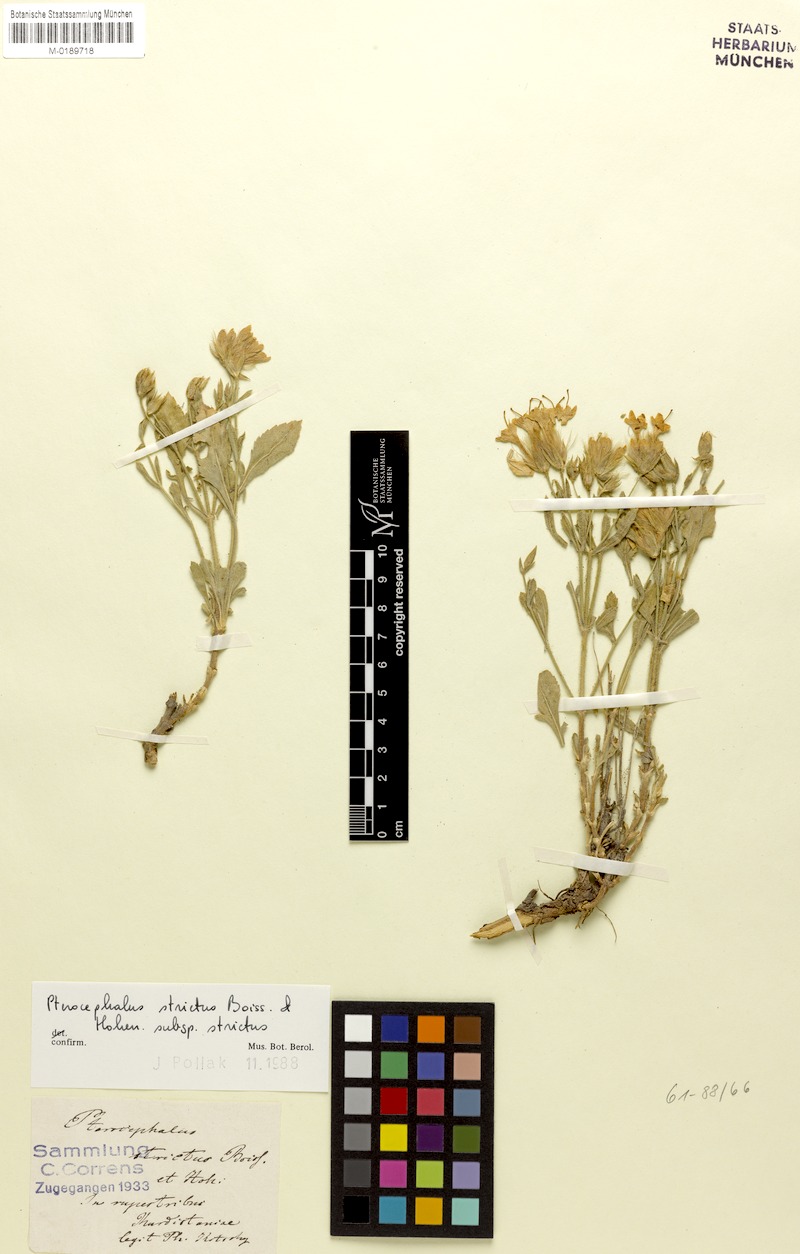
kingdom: Plantae
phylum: Tracheophyta
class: Magnoliopsida
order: Dipsacales
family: Caprifoliaceae
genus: Pterocephalus
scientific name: Pterocephalus strictus
